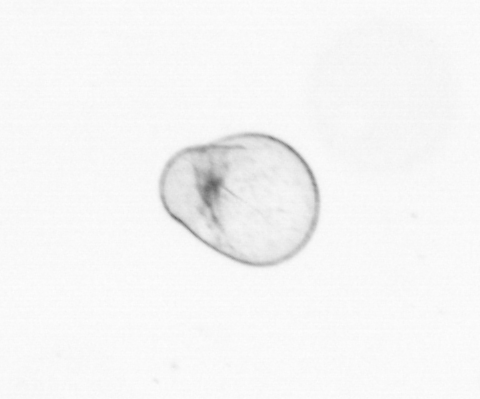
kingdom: Chromista
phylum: Myzozoa
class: Dinophyceae
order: Noctilucales
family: Noctilucaceae
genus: Noctiluca
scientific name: Noctiluca scintillans
